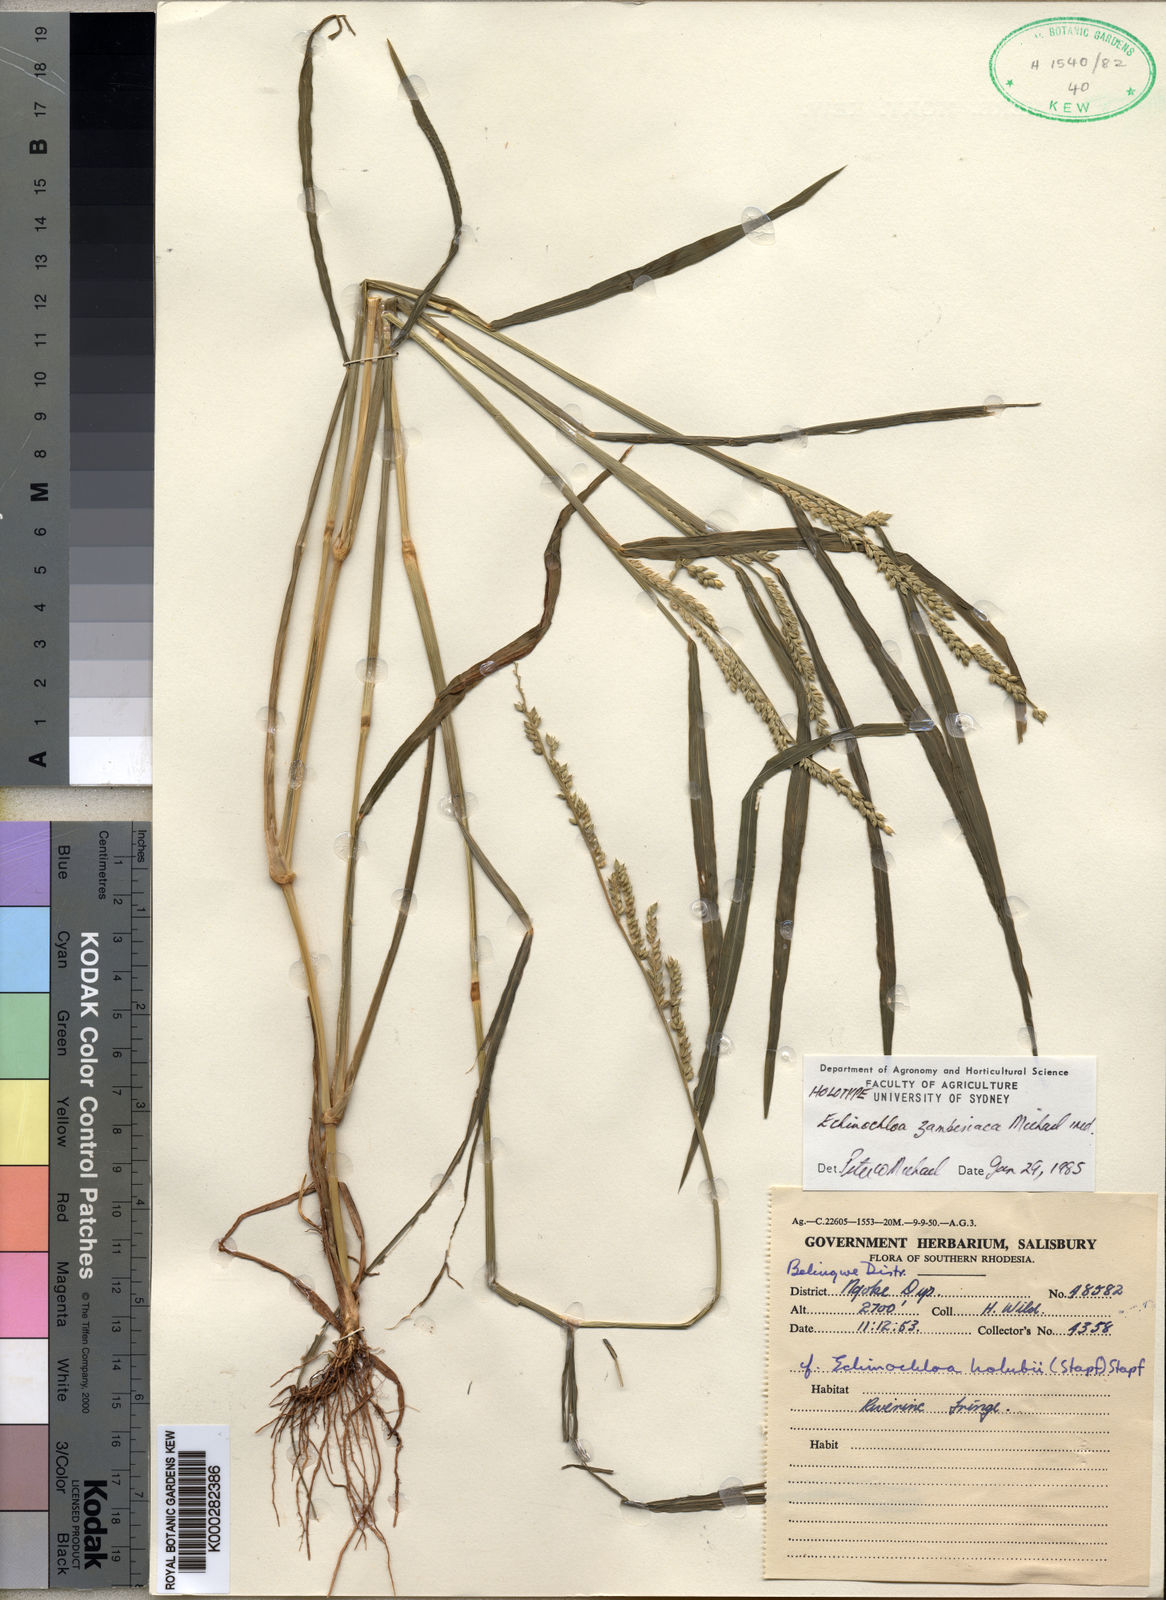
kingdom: Plantae
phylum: Tracheophyta
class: Liliopsida
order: Poales
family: Poaceae
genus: Echinochloa
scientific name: Echinochloa ugandensis
